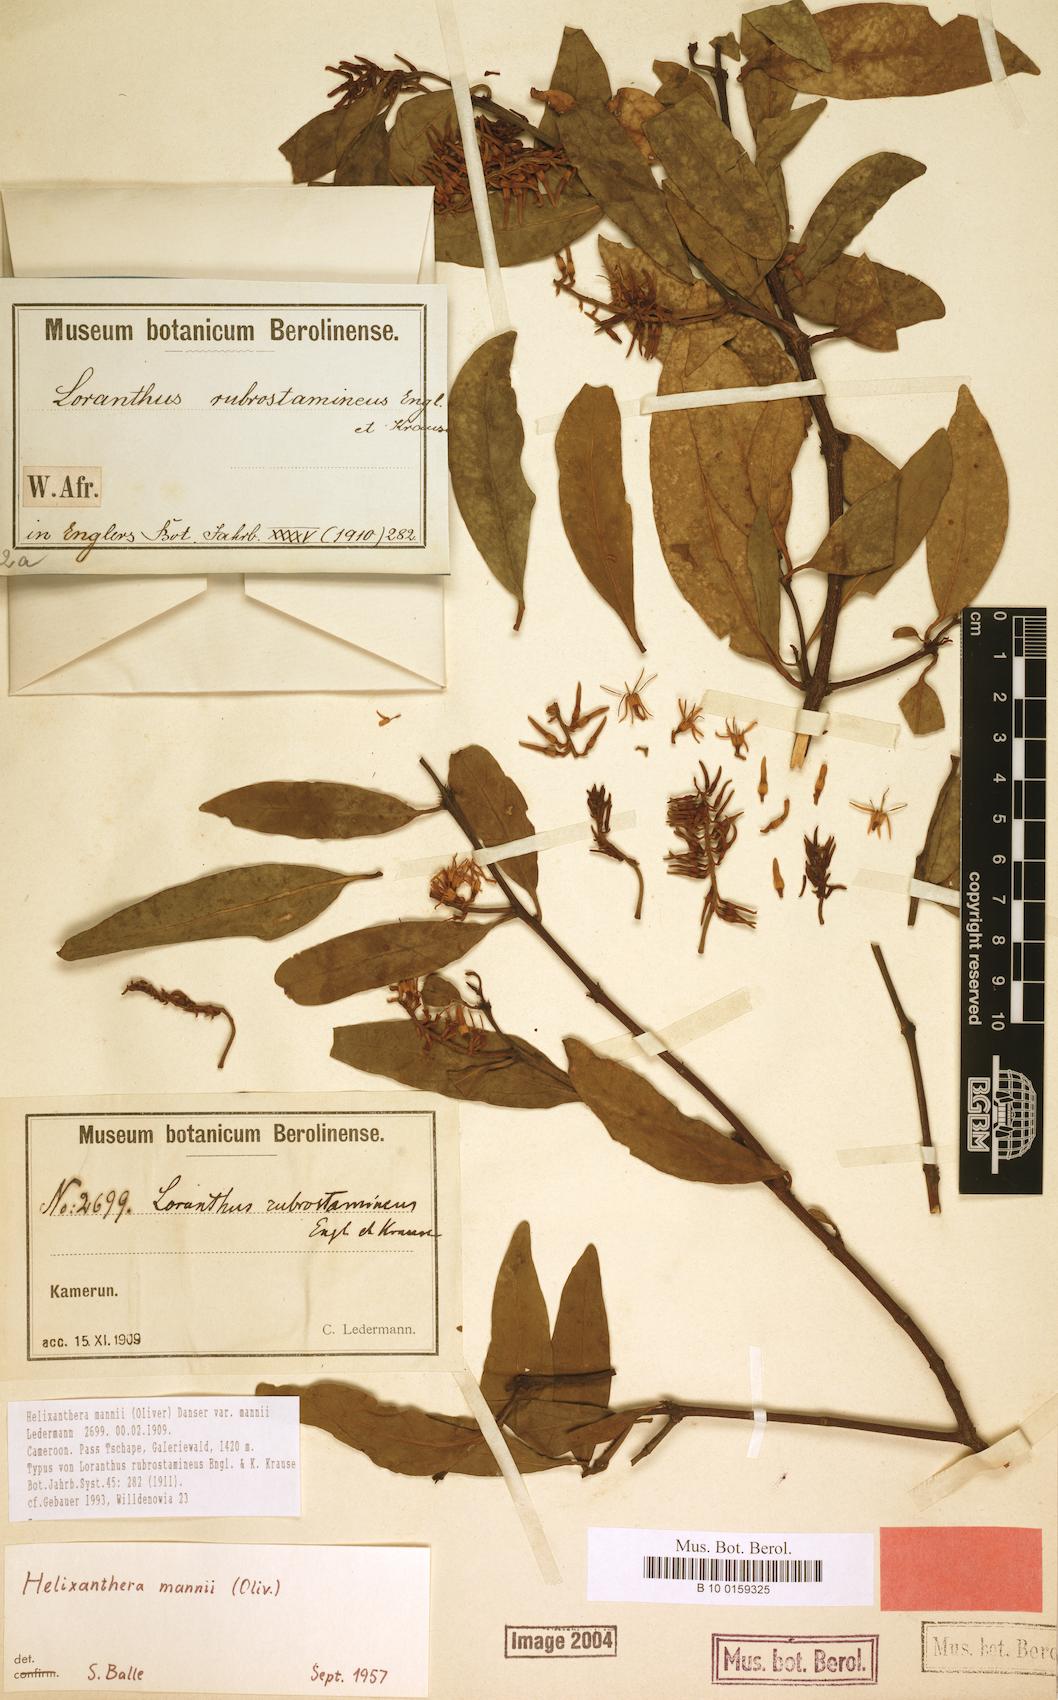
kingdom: Plantae
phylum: Tracheophyta
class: Magnoliopsida
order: Santalales
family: Loranthaceae
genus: Helixanthera
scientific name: Helixanthera mannii
